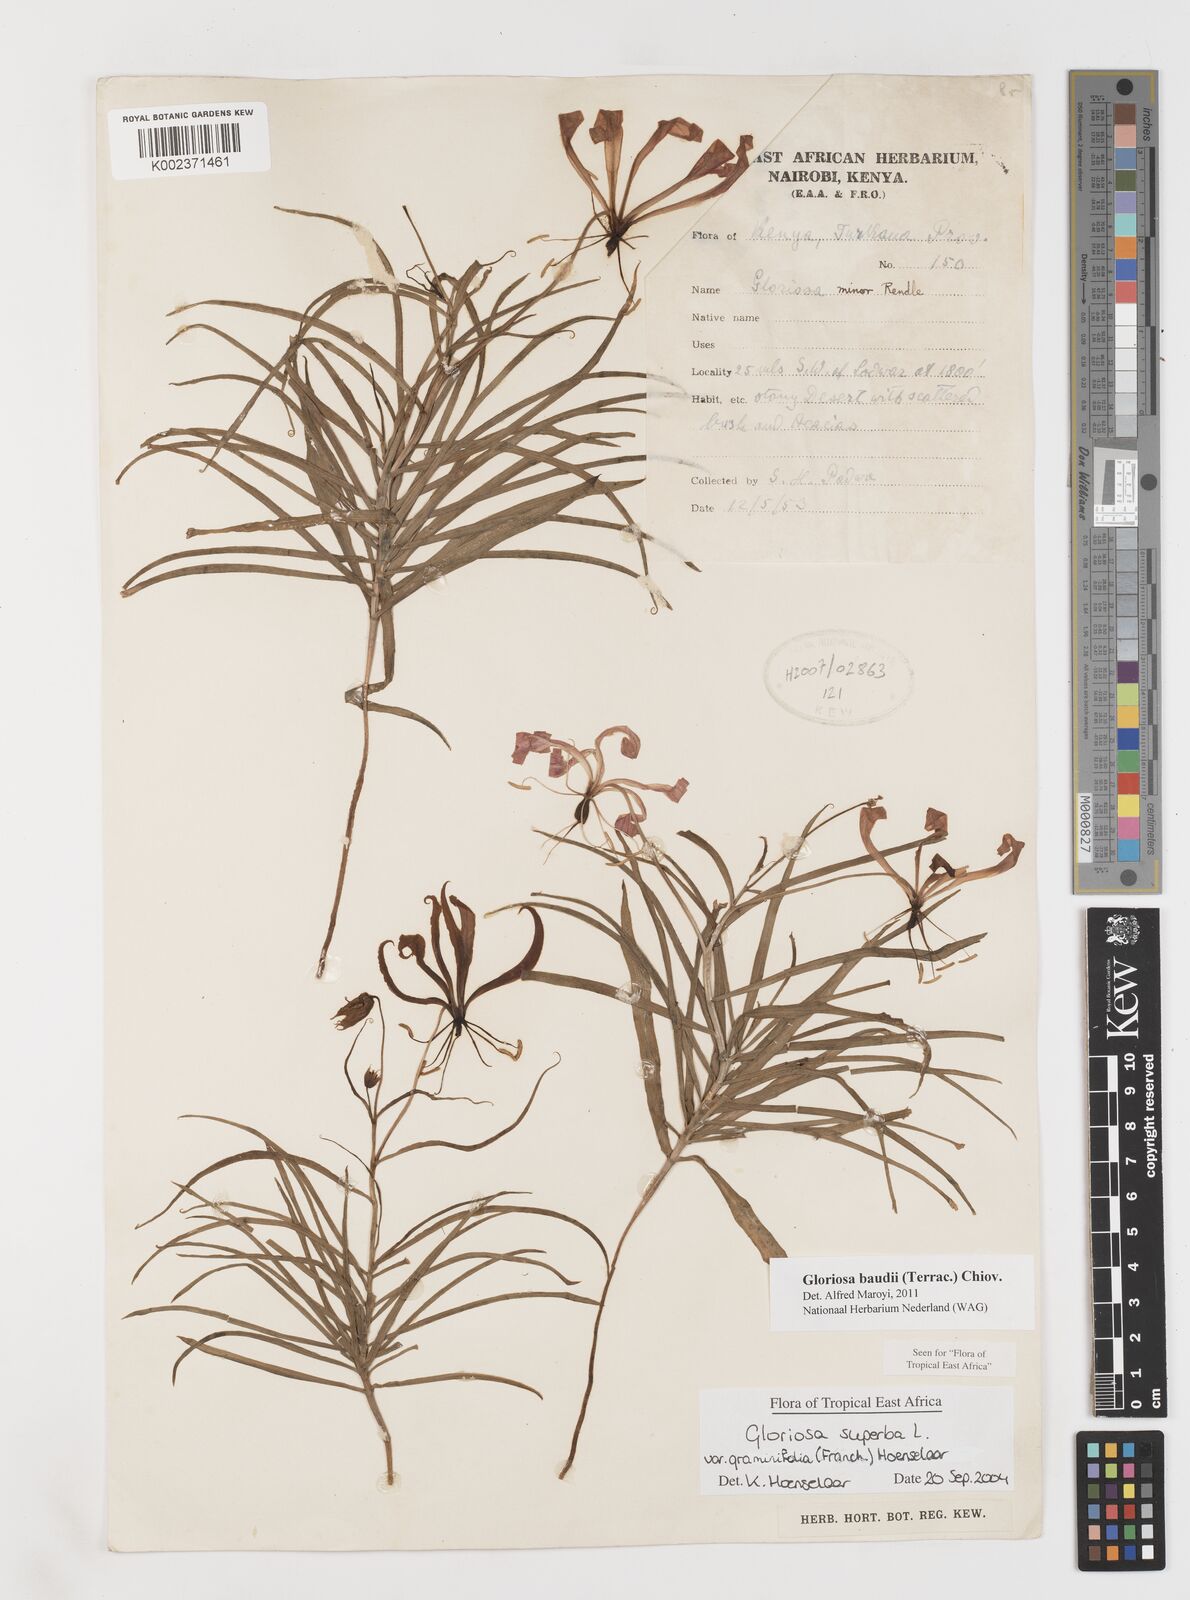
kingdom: Plantae
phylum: Tracheophyta
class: Liliopsida
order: Liliales
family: Colchicaceae
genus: Gloriosa
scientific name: Gloriosa baudii
